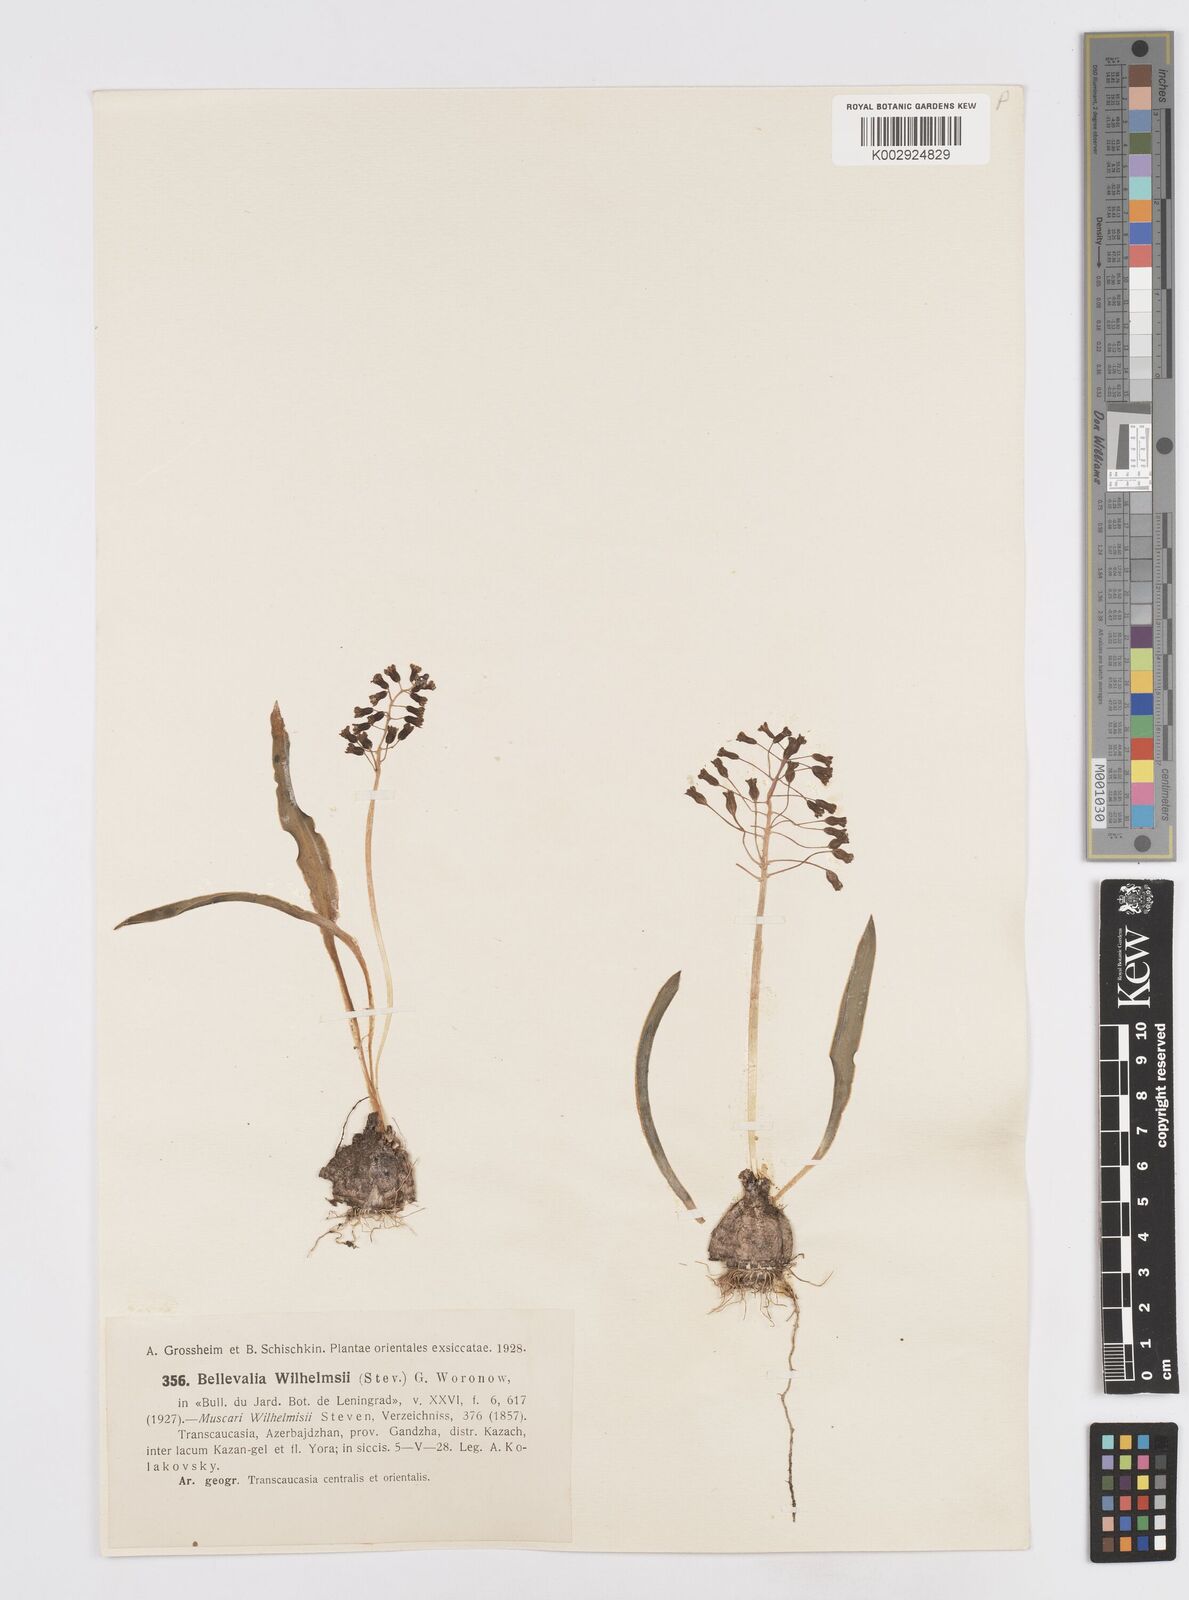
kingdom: Plantae
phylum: Tracheophyta
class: Liliopsida
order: Asparagales
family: Asparagaceae
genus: Bellevalia
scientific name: Bellevalia
